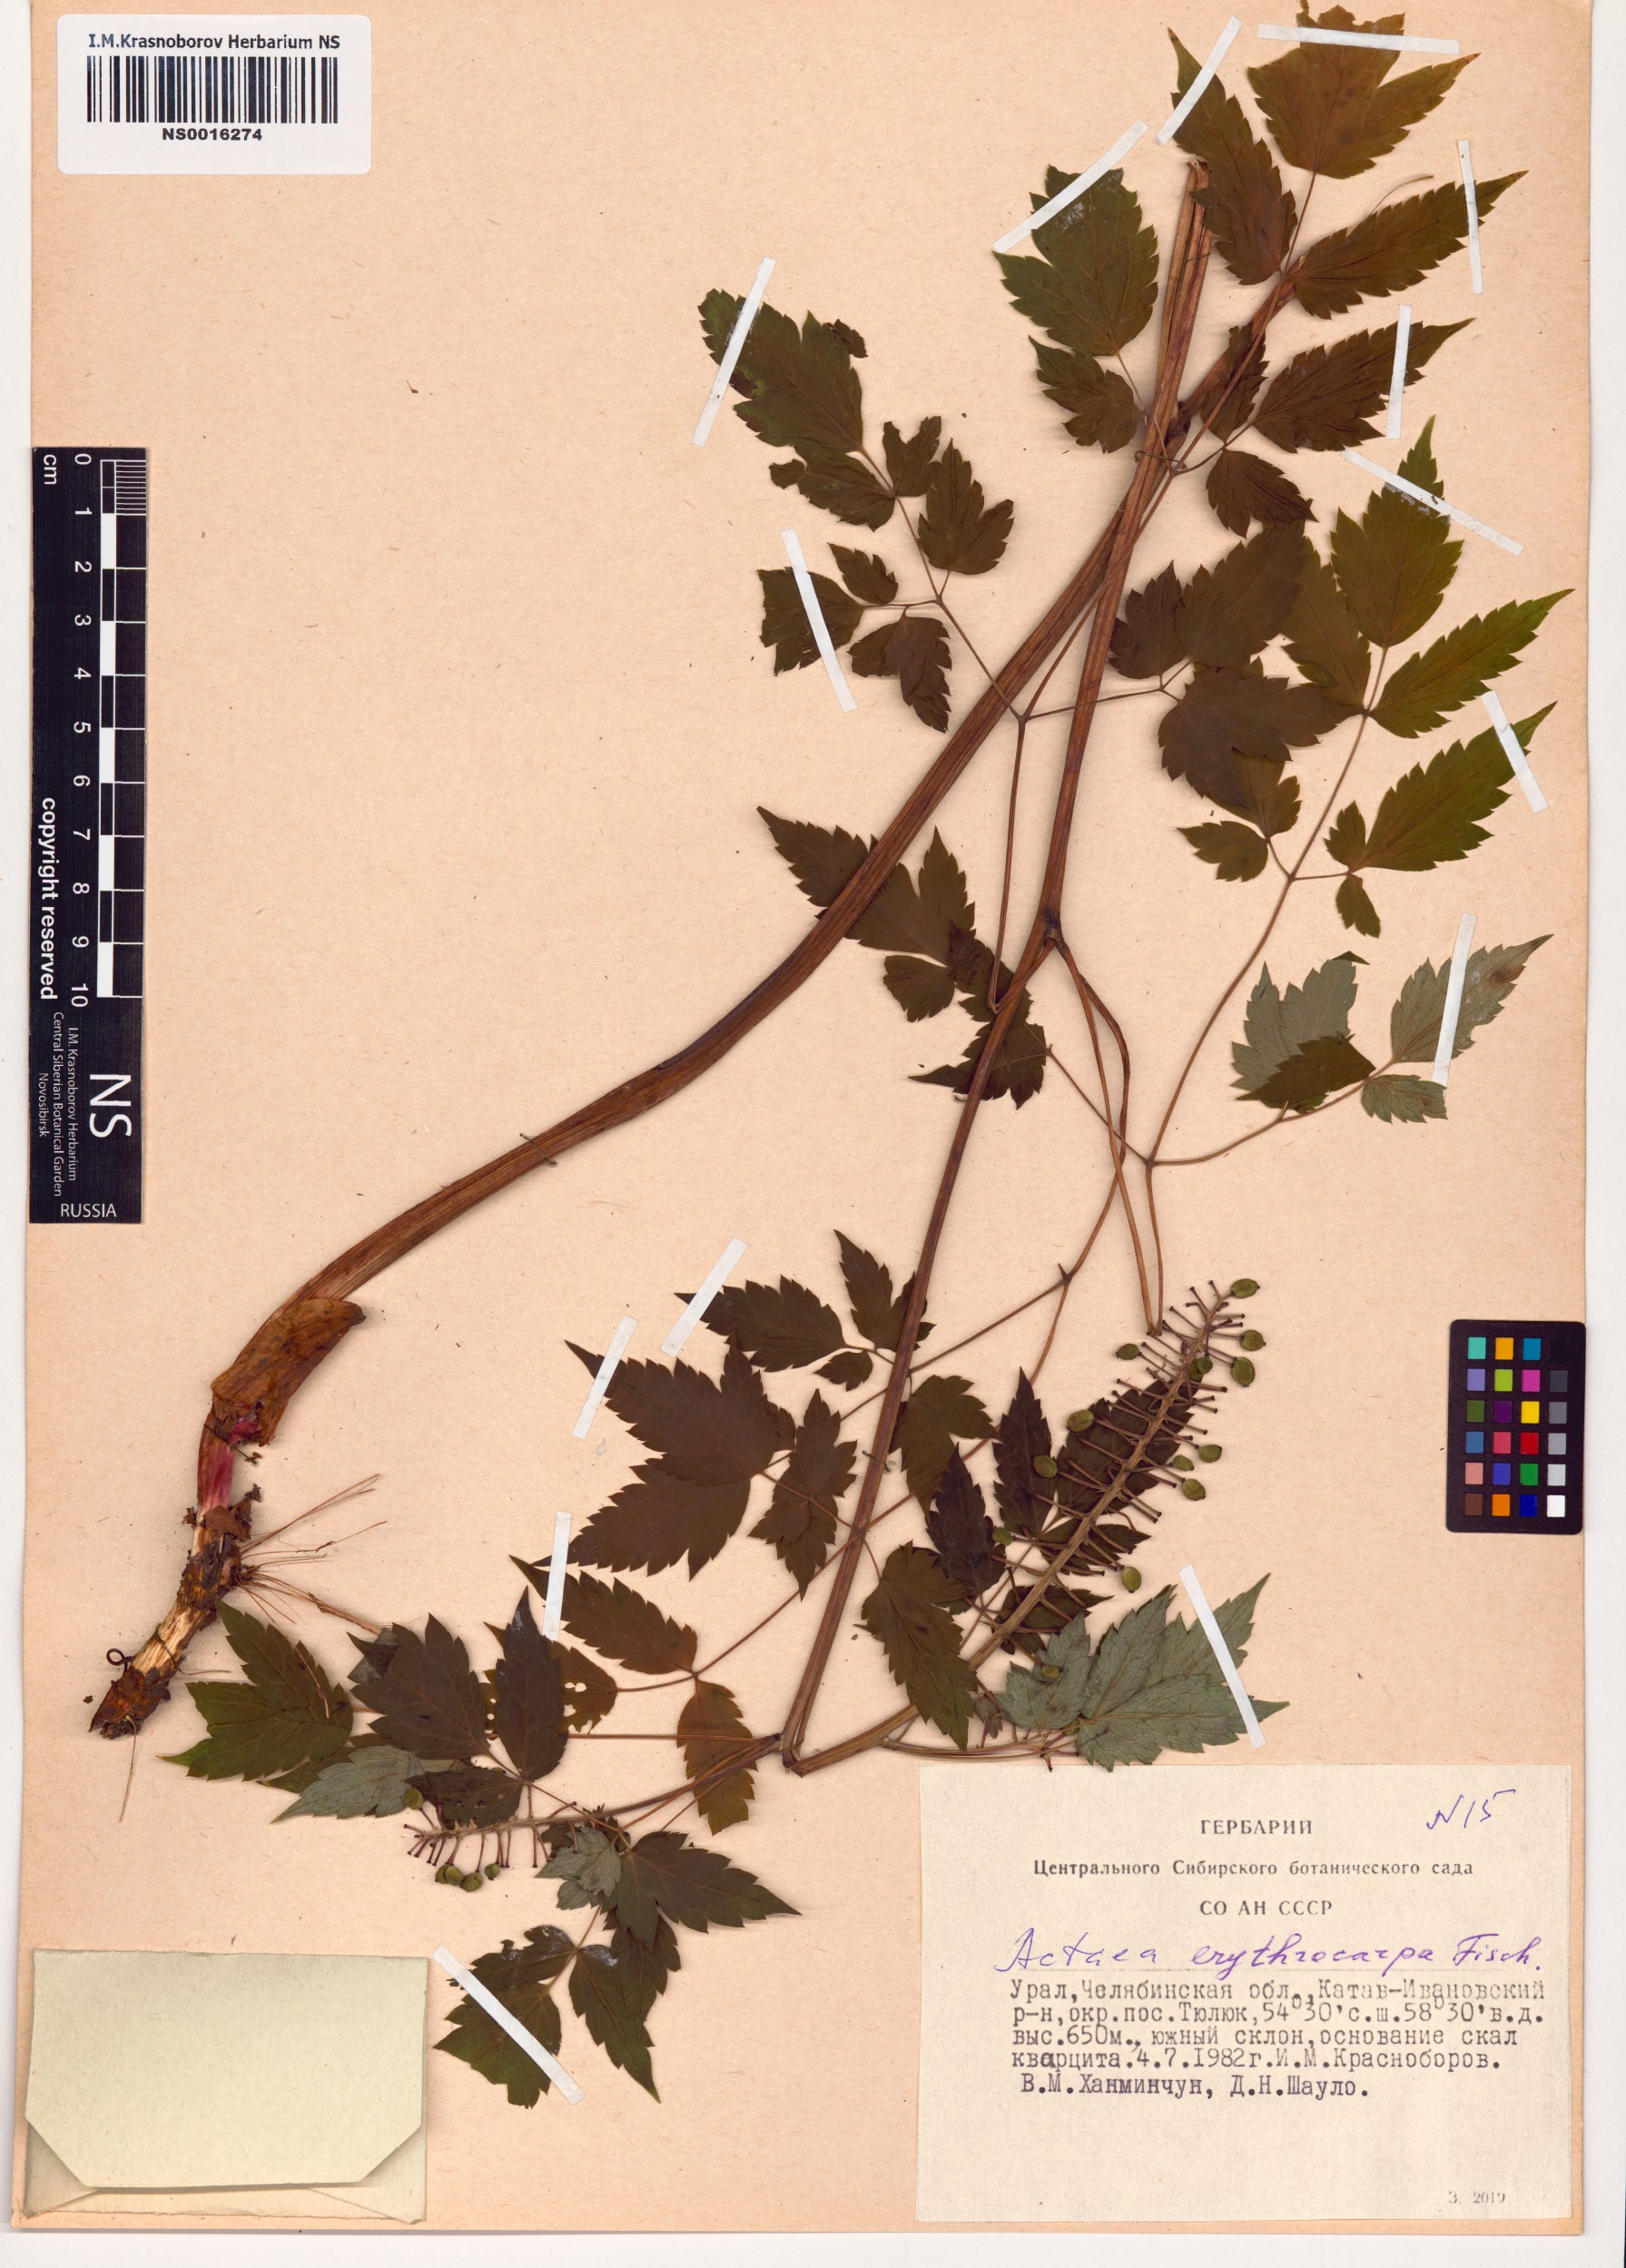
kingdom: Plantae
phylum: Tracheophyta
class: Magnoliopsida
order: Ranunculales
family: Ranunculaceae
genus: Actaea
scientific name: Actaea erythrocarpa
